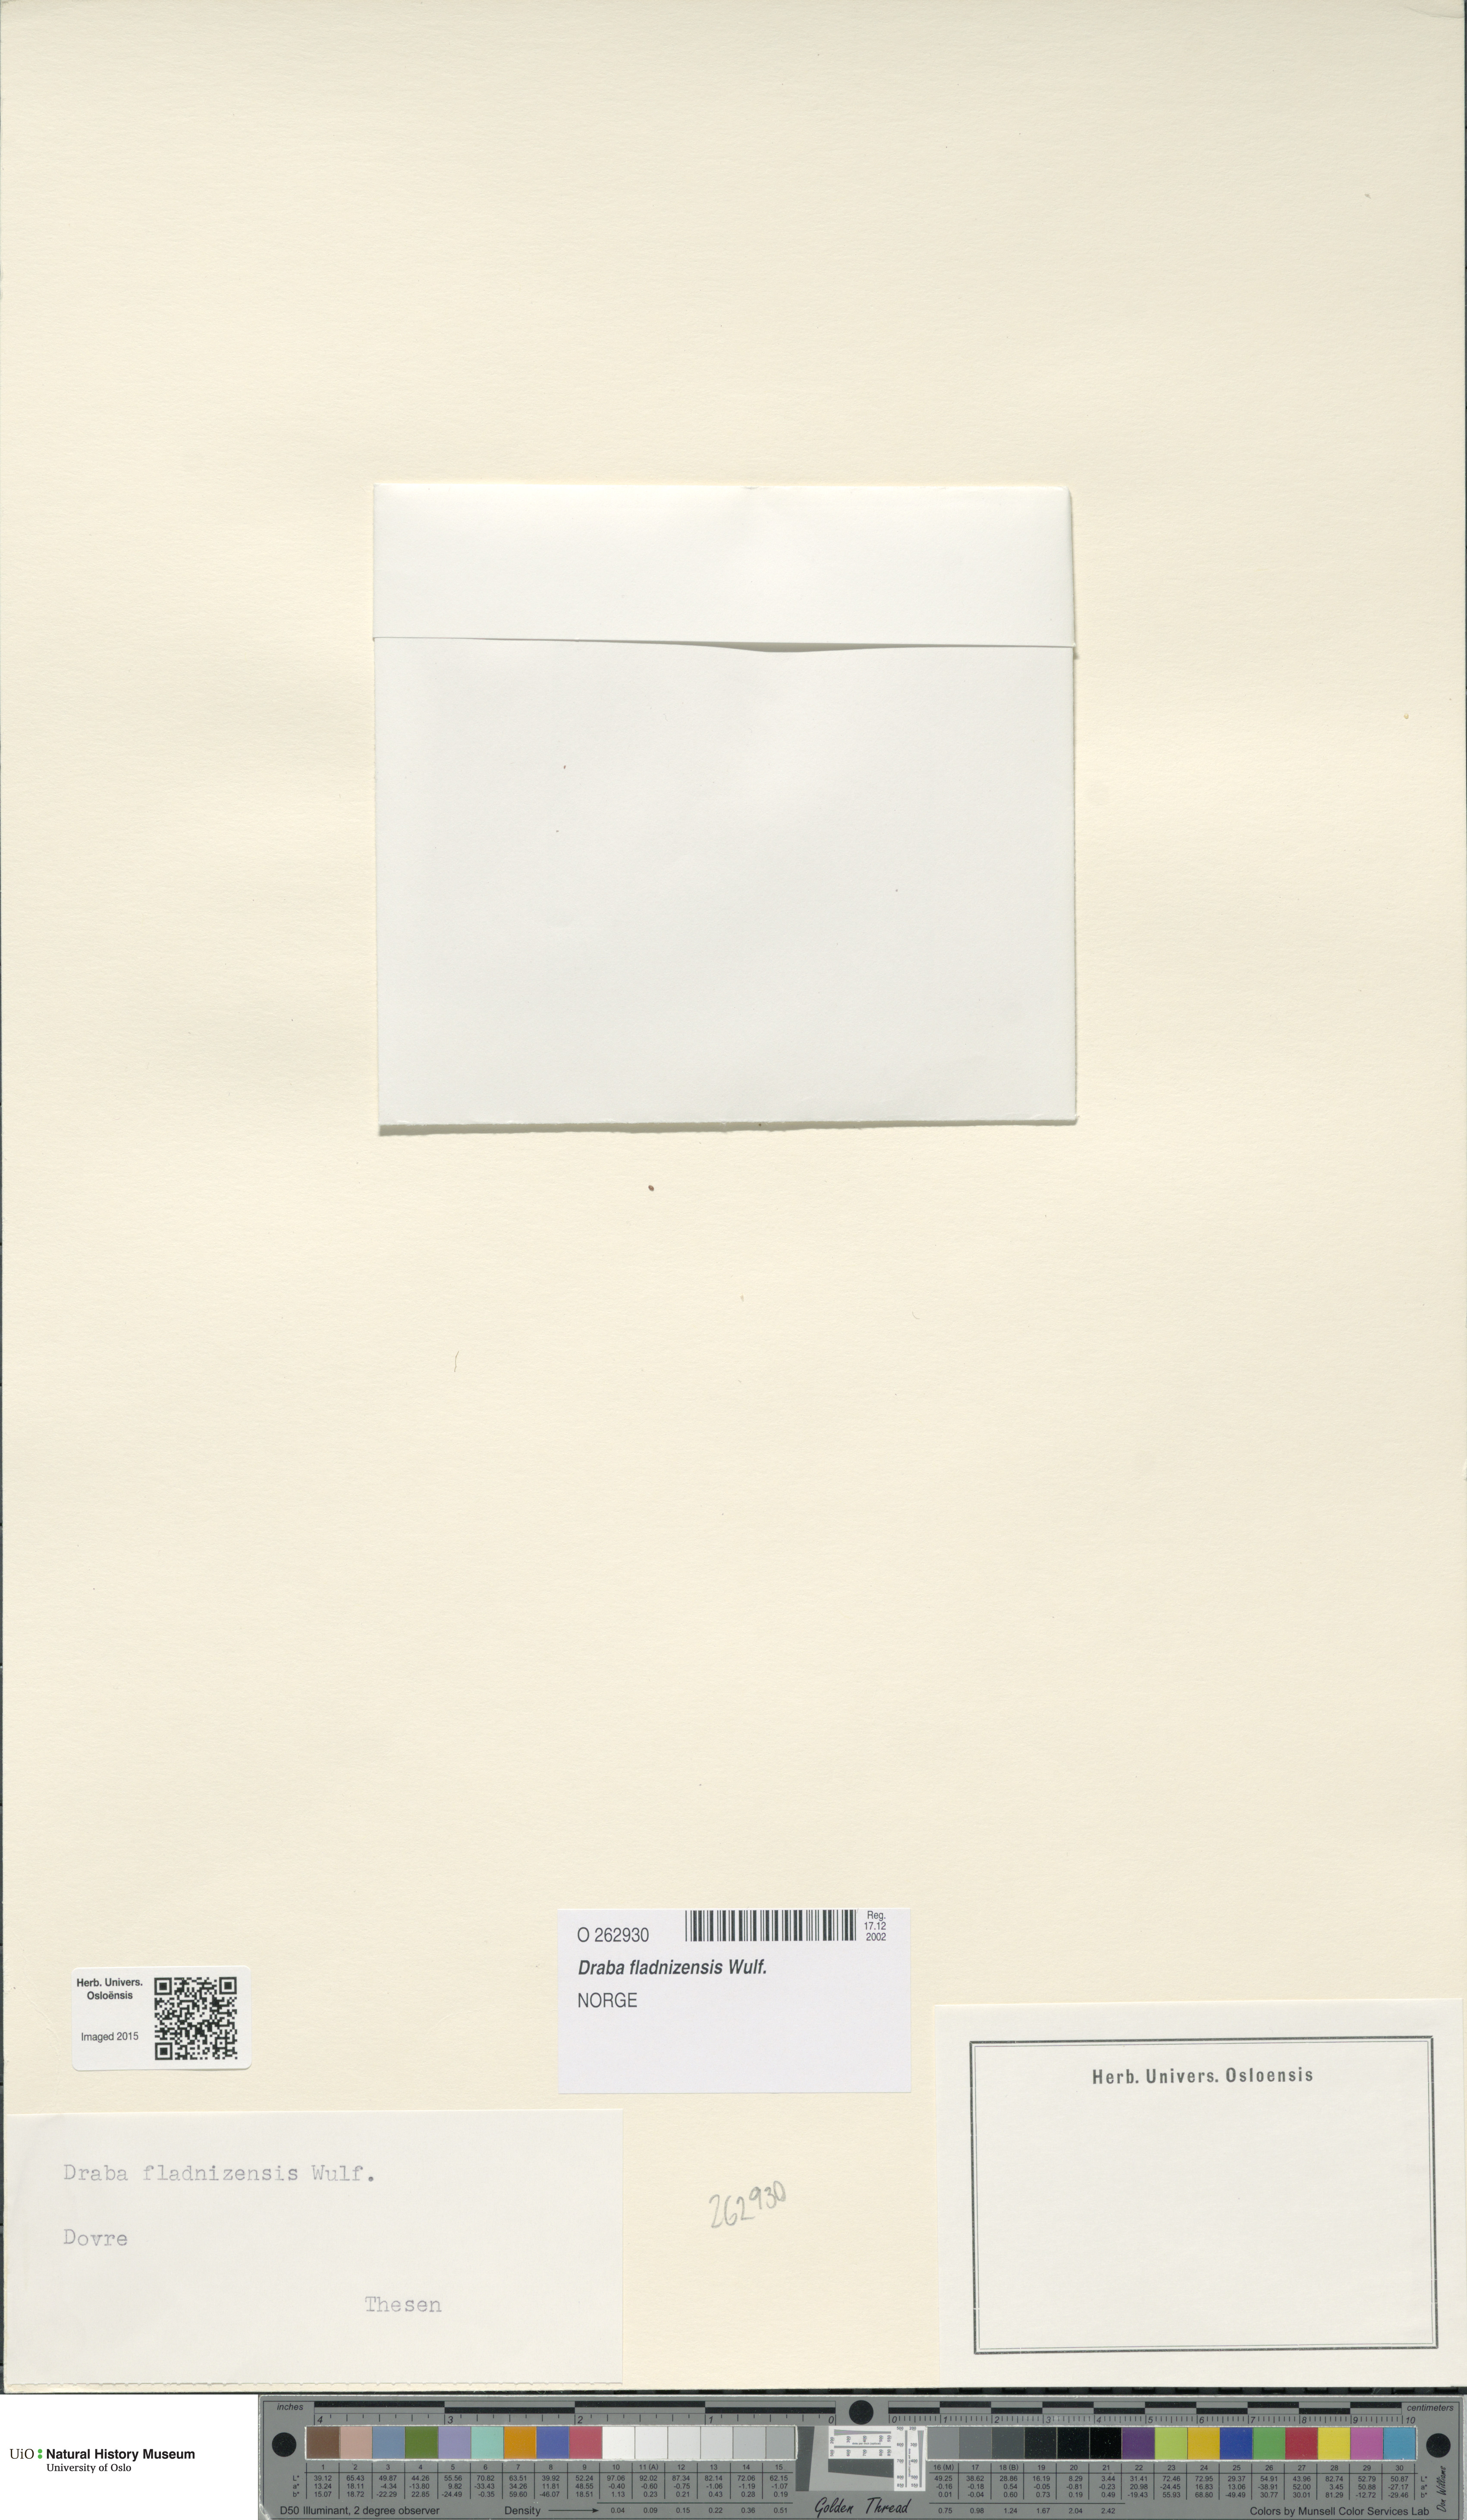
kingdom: Plantae
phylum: Tracheophyta
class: Magnoliopsida
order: Brassicales
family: Brassicaceae
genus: Draba
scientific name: Draba fladnizensis
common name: Austrian draba
